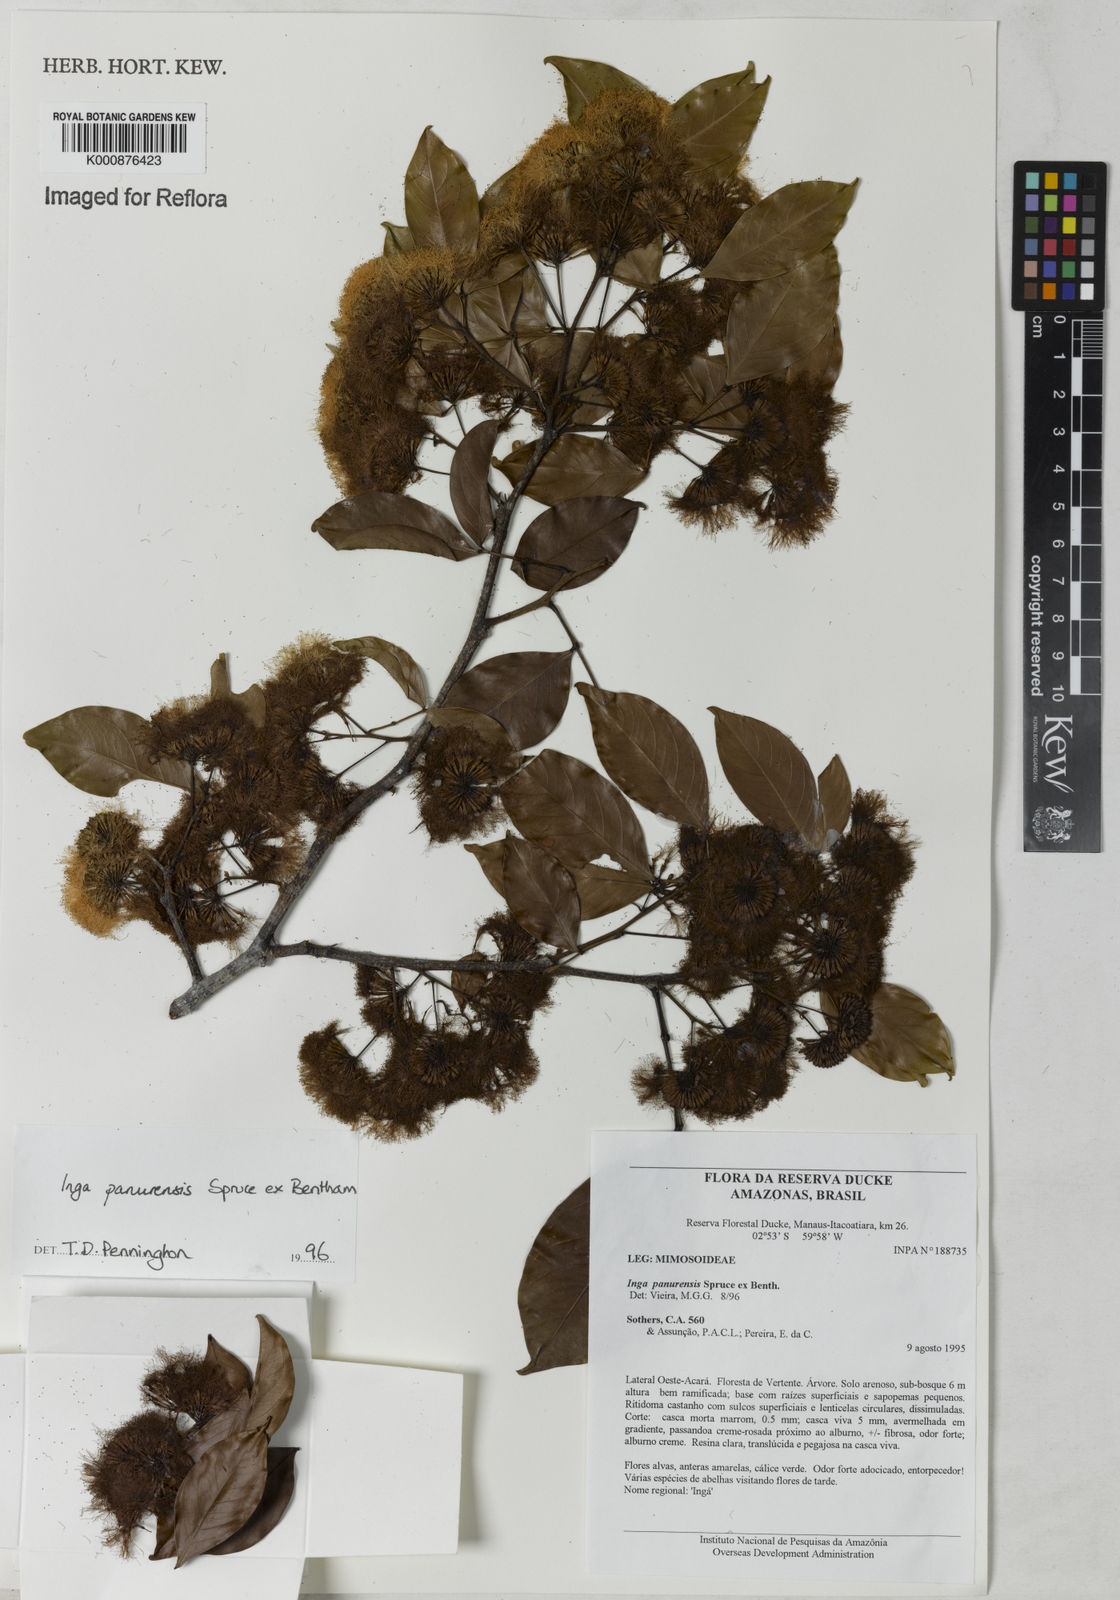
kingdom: Plantae
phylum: Tracheophyta
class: Magnoliopsida
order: Fabales
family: Fabaceae
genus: Inga
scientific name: Inga panurensis
